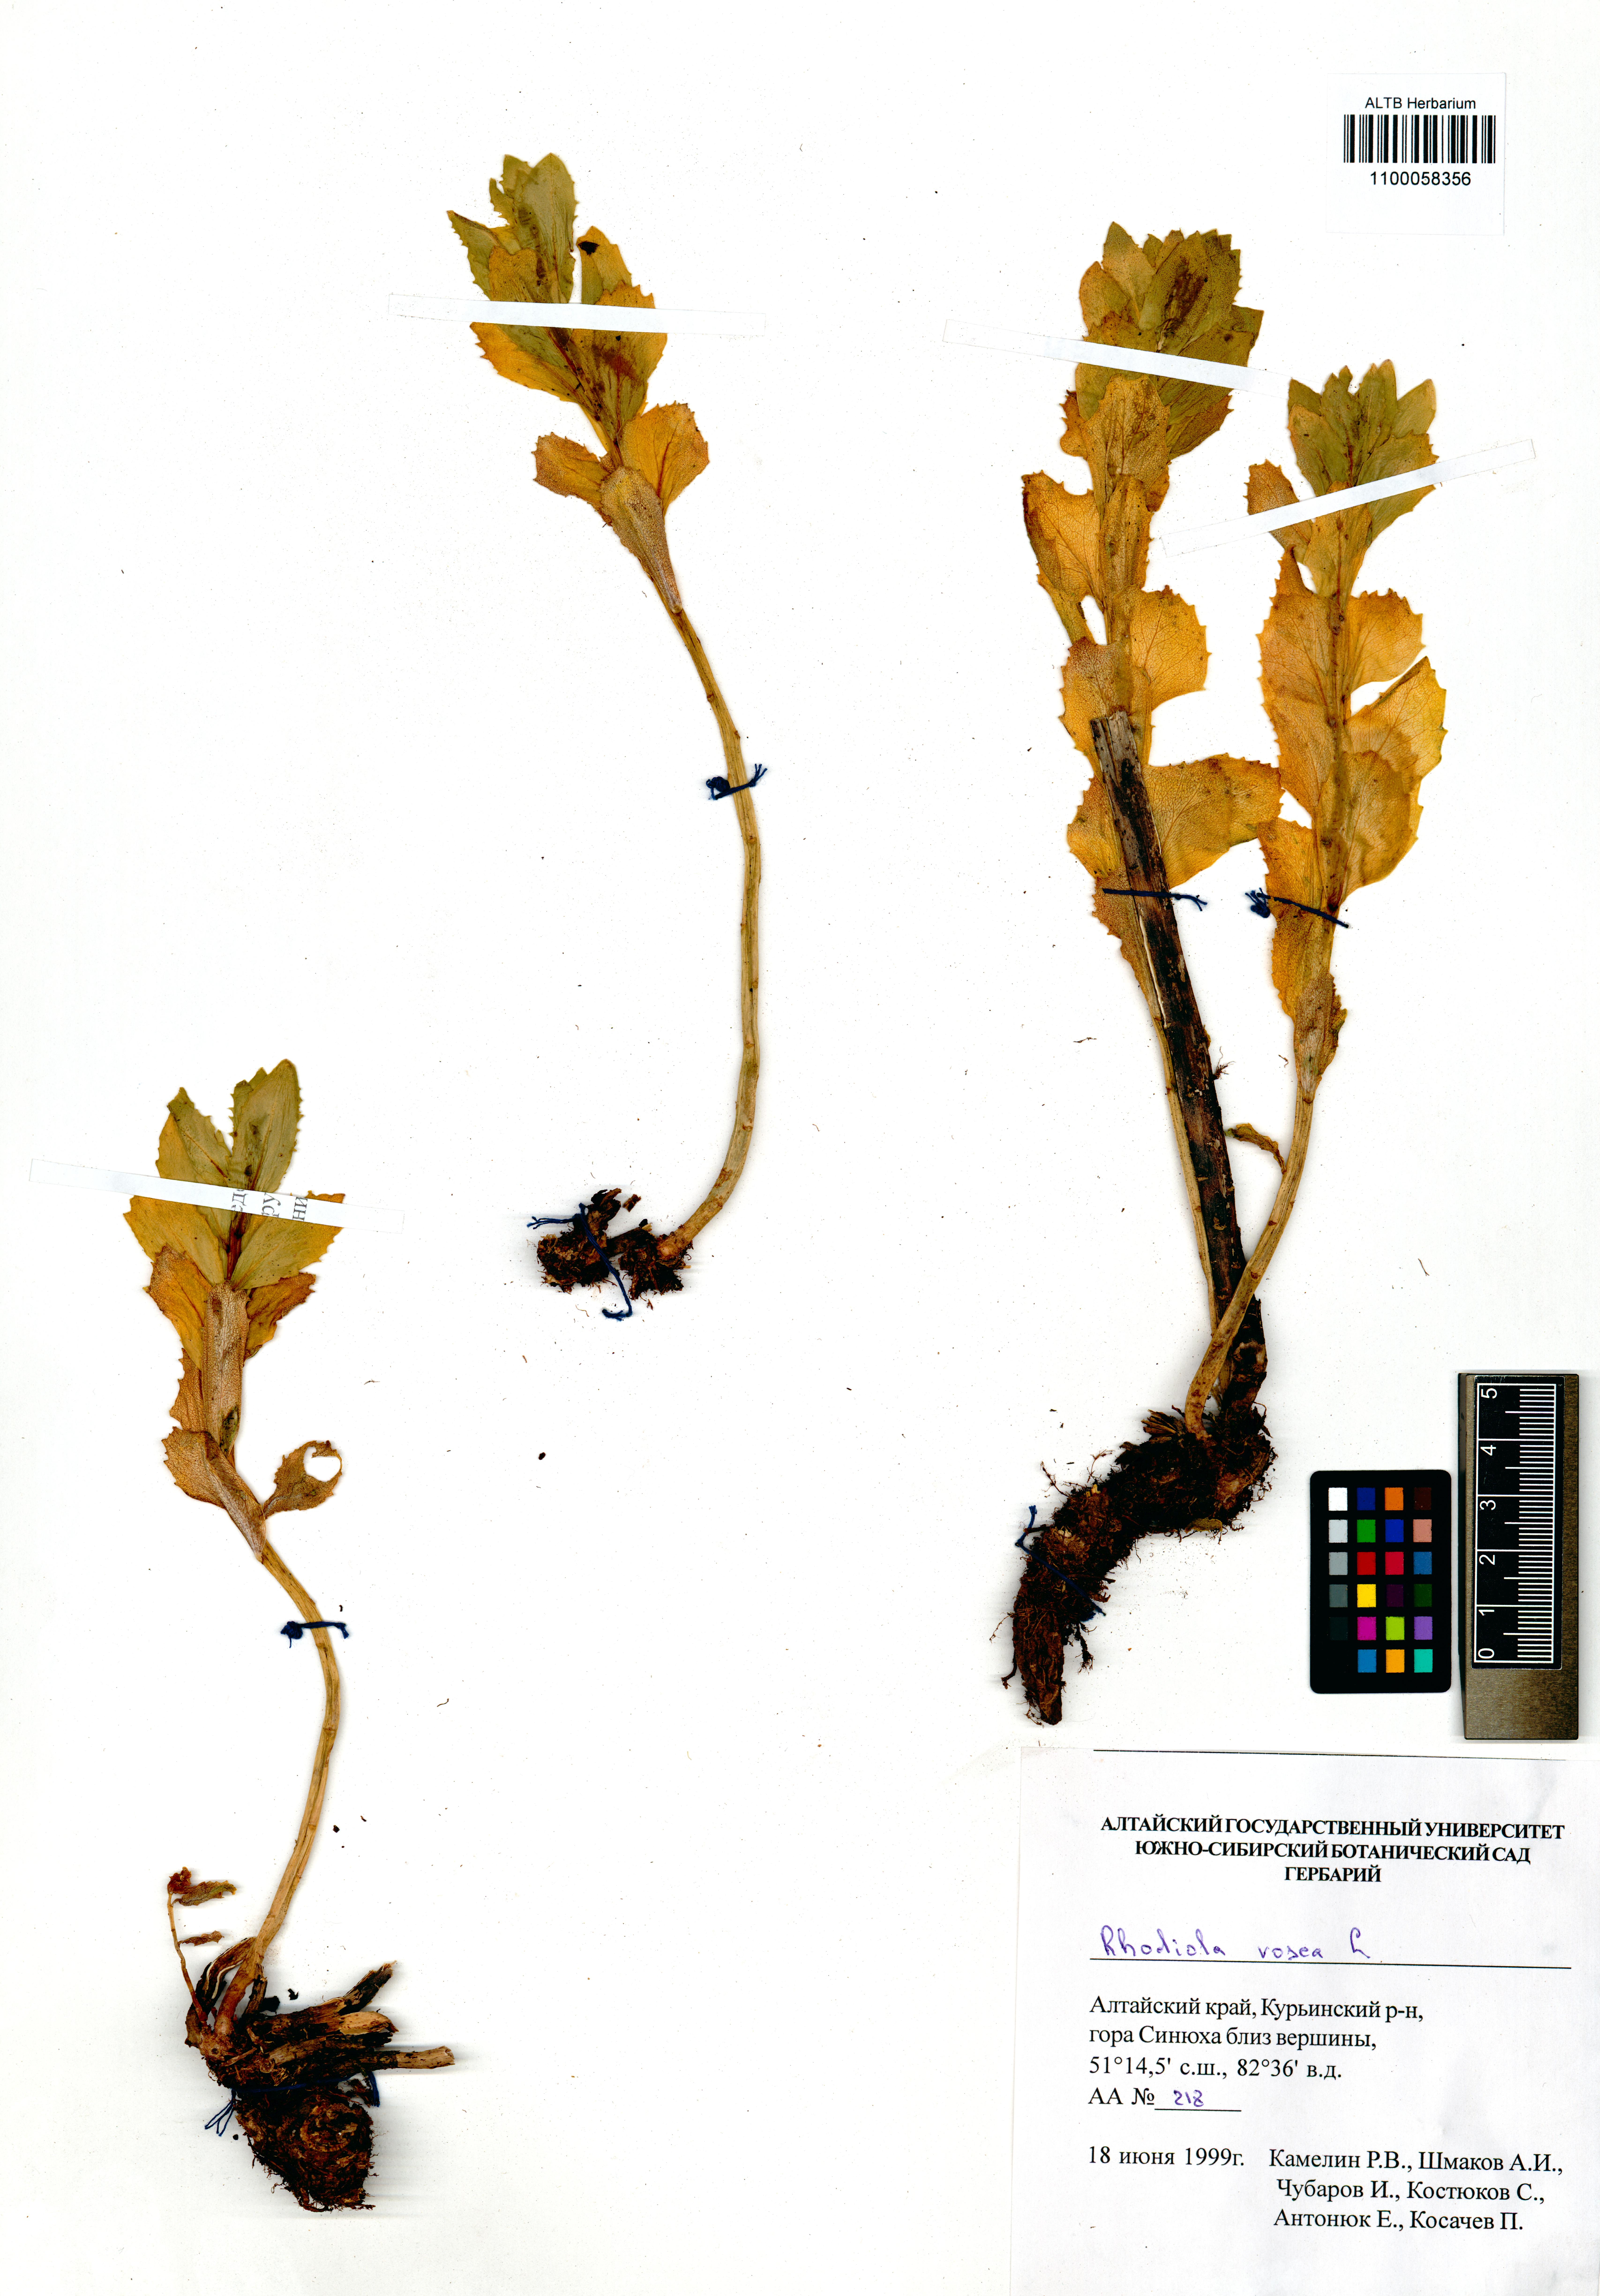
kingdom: Plantae
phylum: Tracheophyta
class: Magnoliopsida
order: Saxifragales
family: Crassulaceae
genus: Rhodiola
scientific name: Rhodiola rosea
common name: Roseroot
